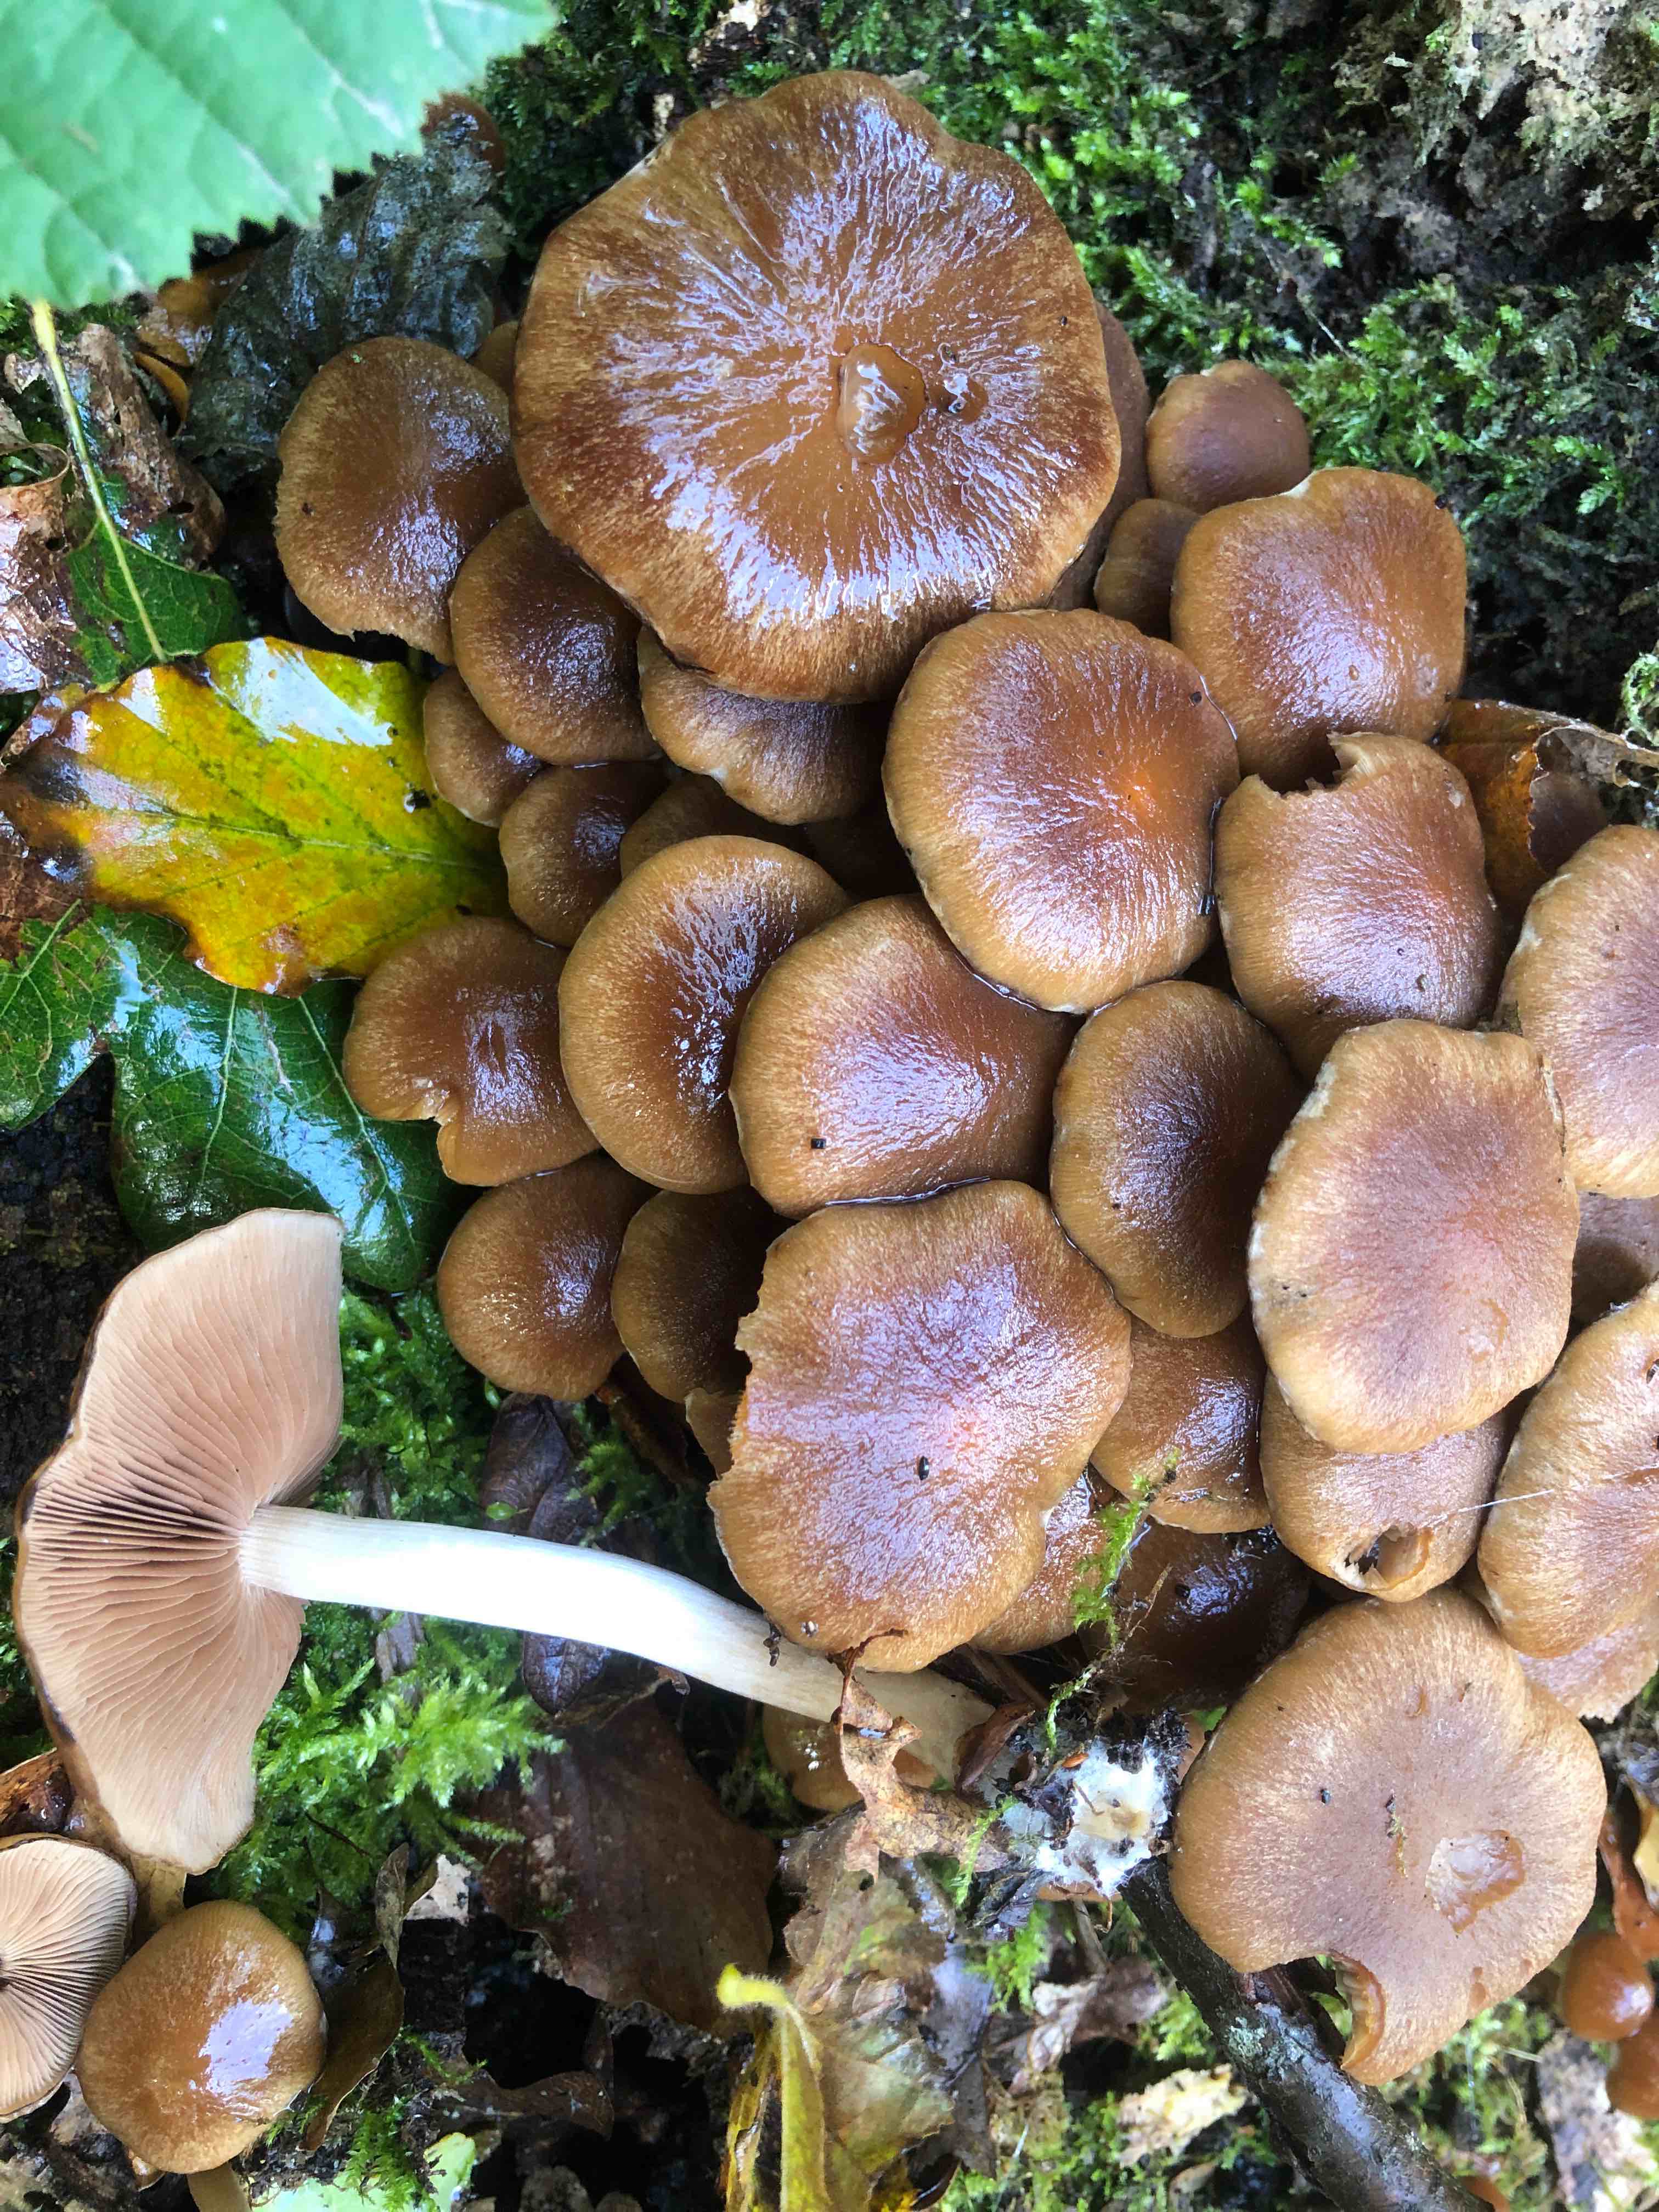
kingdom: Fungi
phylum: Basidiomycota
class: Agaricomycetes
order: Agaricales
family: Psathyrellaceae
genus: Psathyrella
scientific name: Psathyrella piluliformis
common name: lysstokket mørkhat
